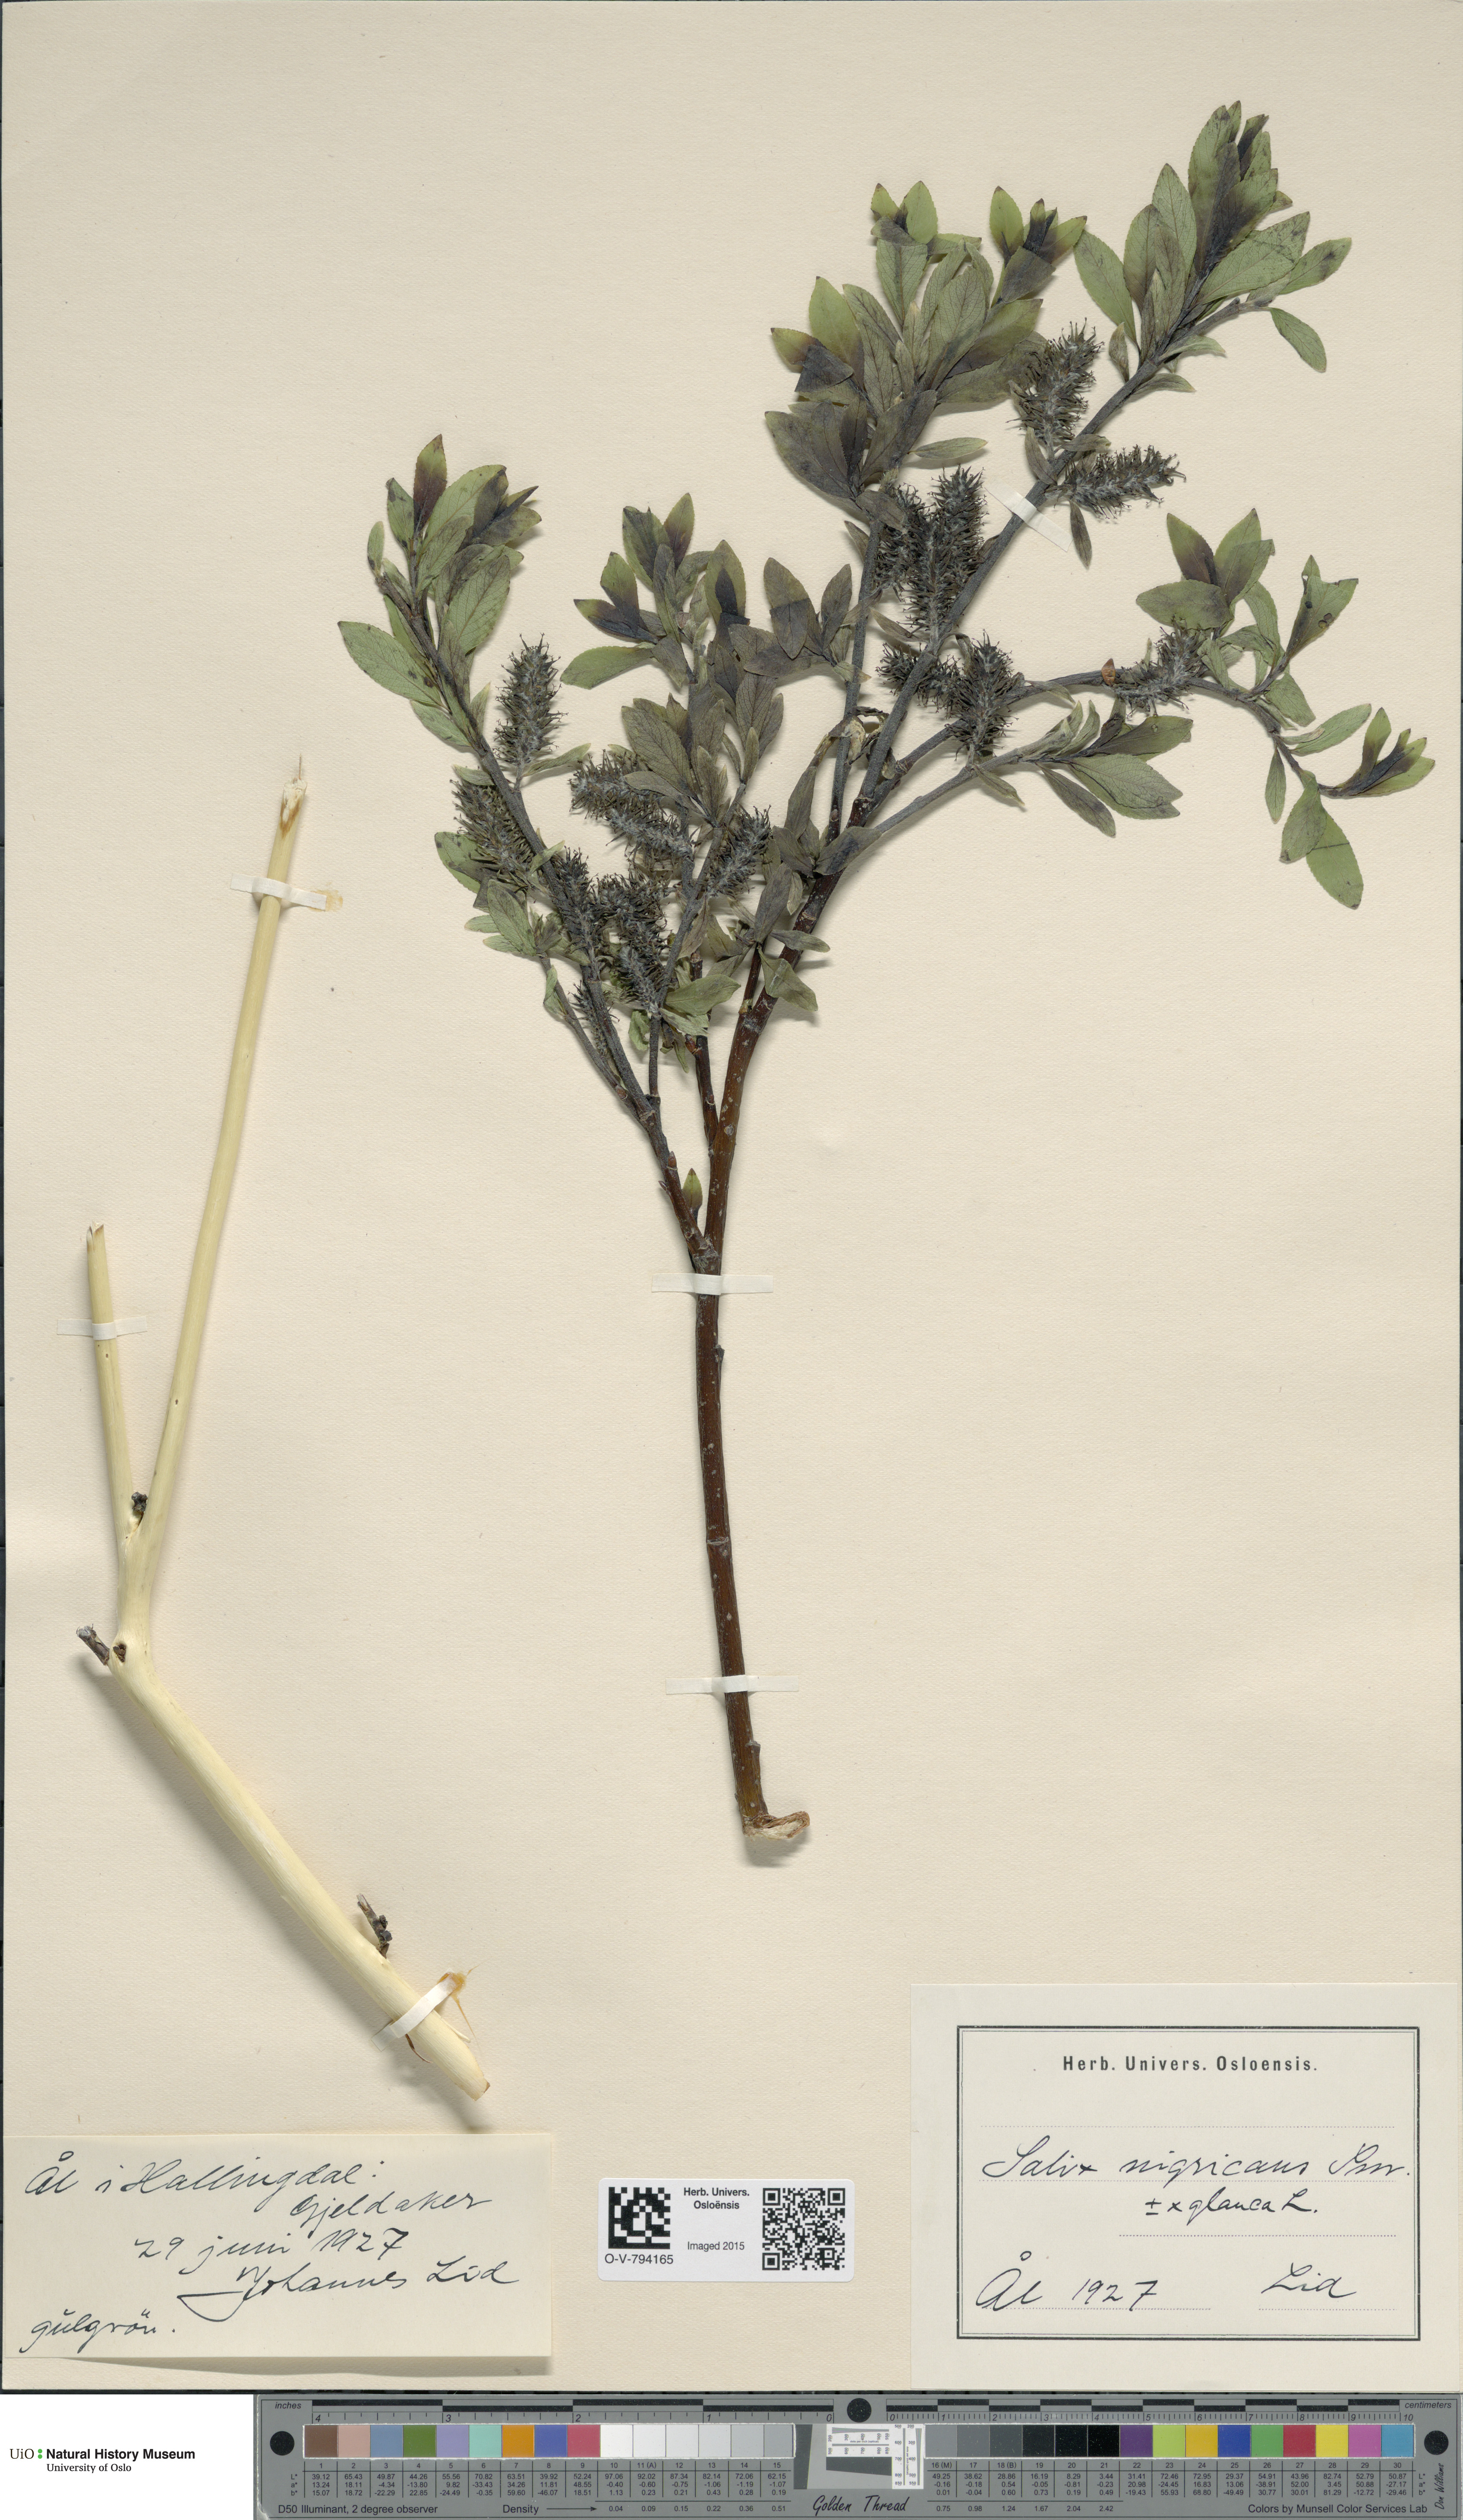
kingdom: Plantae
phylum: Tracheophyta
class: Magnoliopsida
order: Malpighiales
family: Salicaceae
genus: Salix
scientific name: Salix myrsinifolia
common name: Dark-leaved willow
